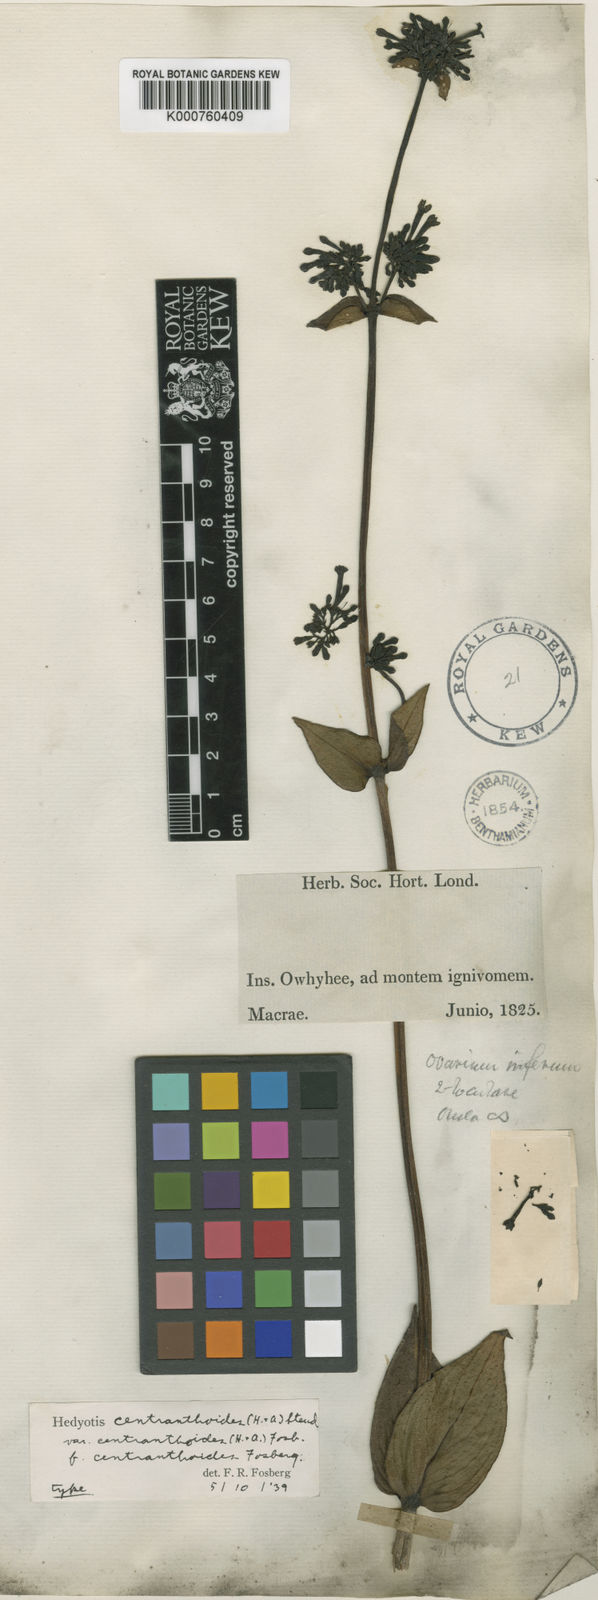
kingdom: Plantae
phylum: Tracheophyta
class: Magnoliopsida
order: Gentianales
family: Rubiaceae
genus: Kadua
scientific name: Kadua centranthoides
